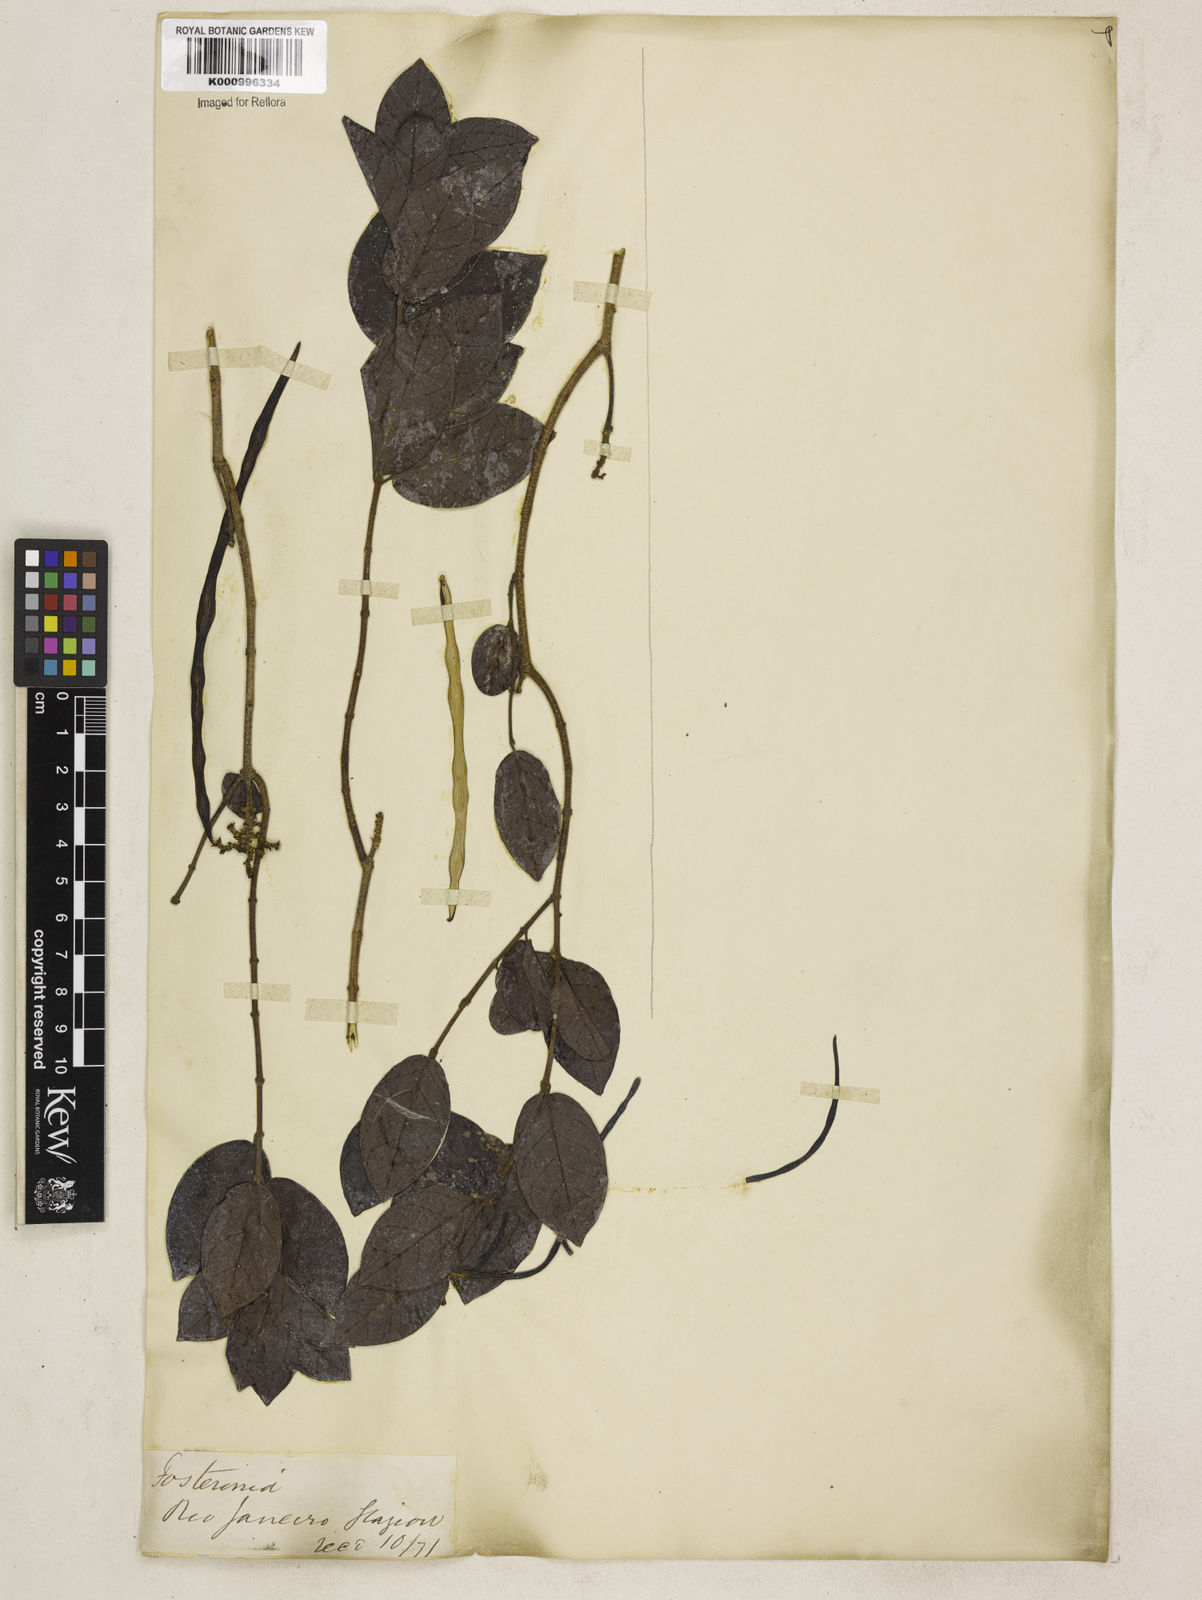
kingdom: Plantae
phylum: Tracheophyta
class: Magnoliopsida
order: Gentianales
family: Apocynaceae
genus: Forsteronia
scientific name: Forsteronia leptocarpa
